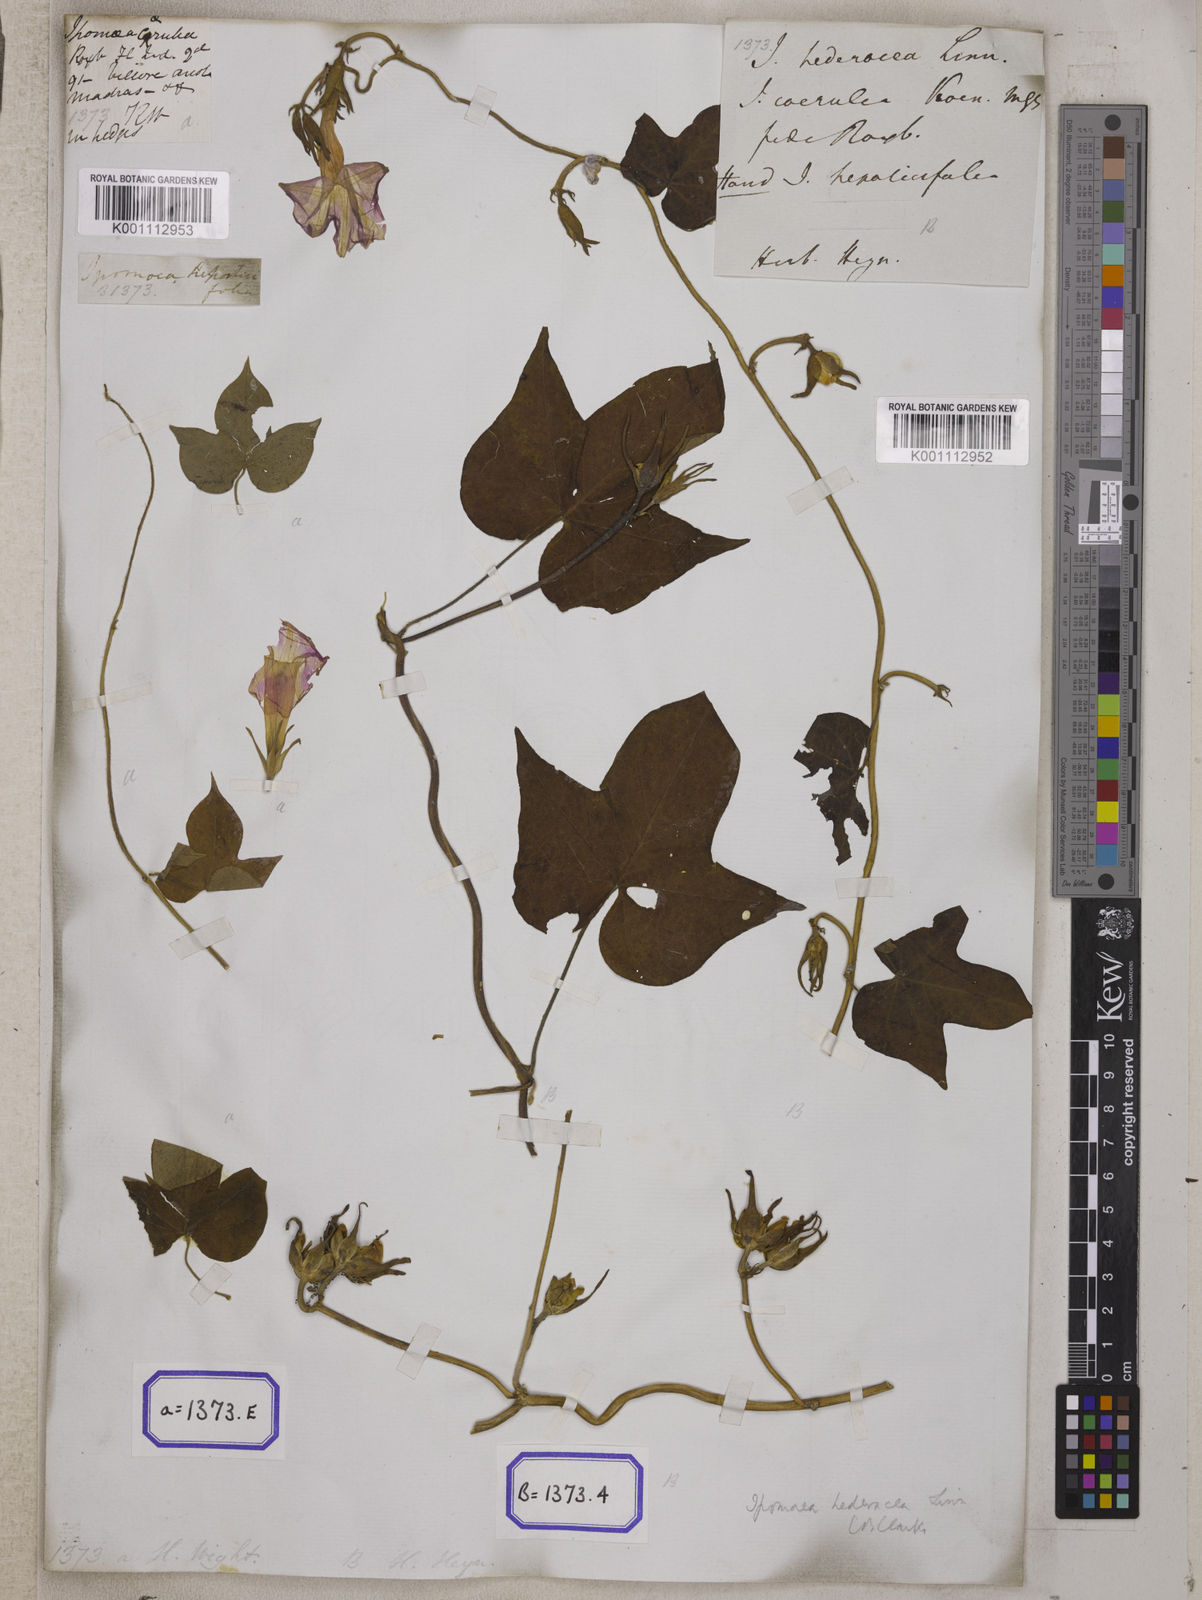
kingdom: Plantae
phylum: Tracheophyta
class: Magnoliopsida
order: Solanales
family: Convolvulaceae
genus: Ipomoea
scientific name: Ipomoea nil
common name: Japanese morning-glory
